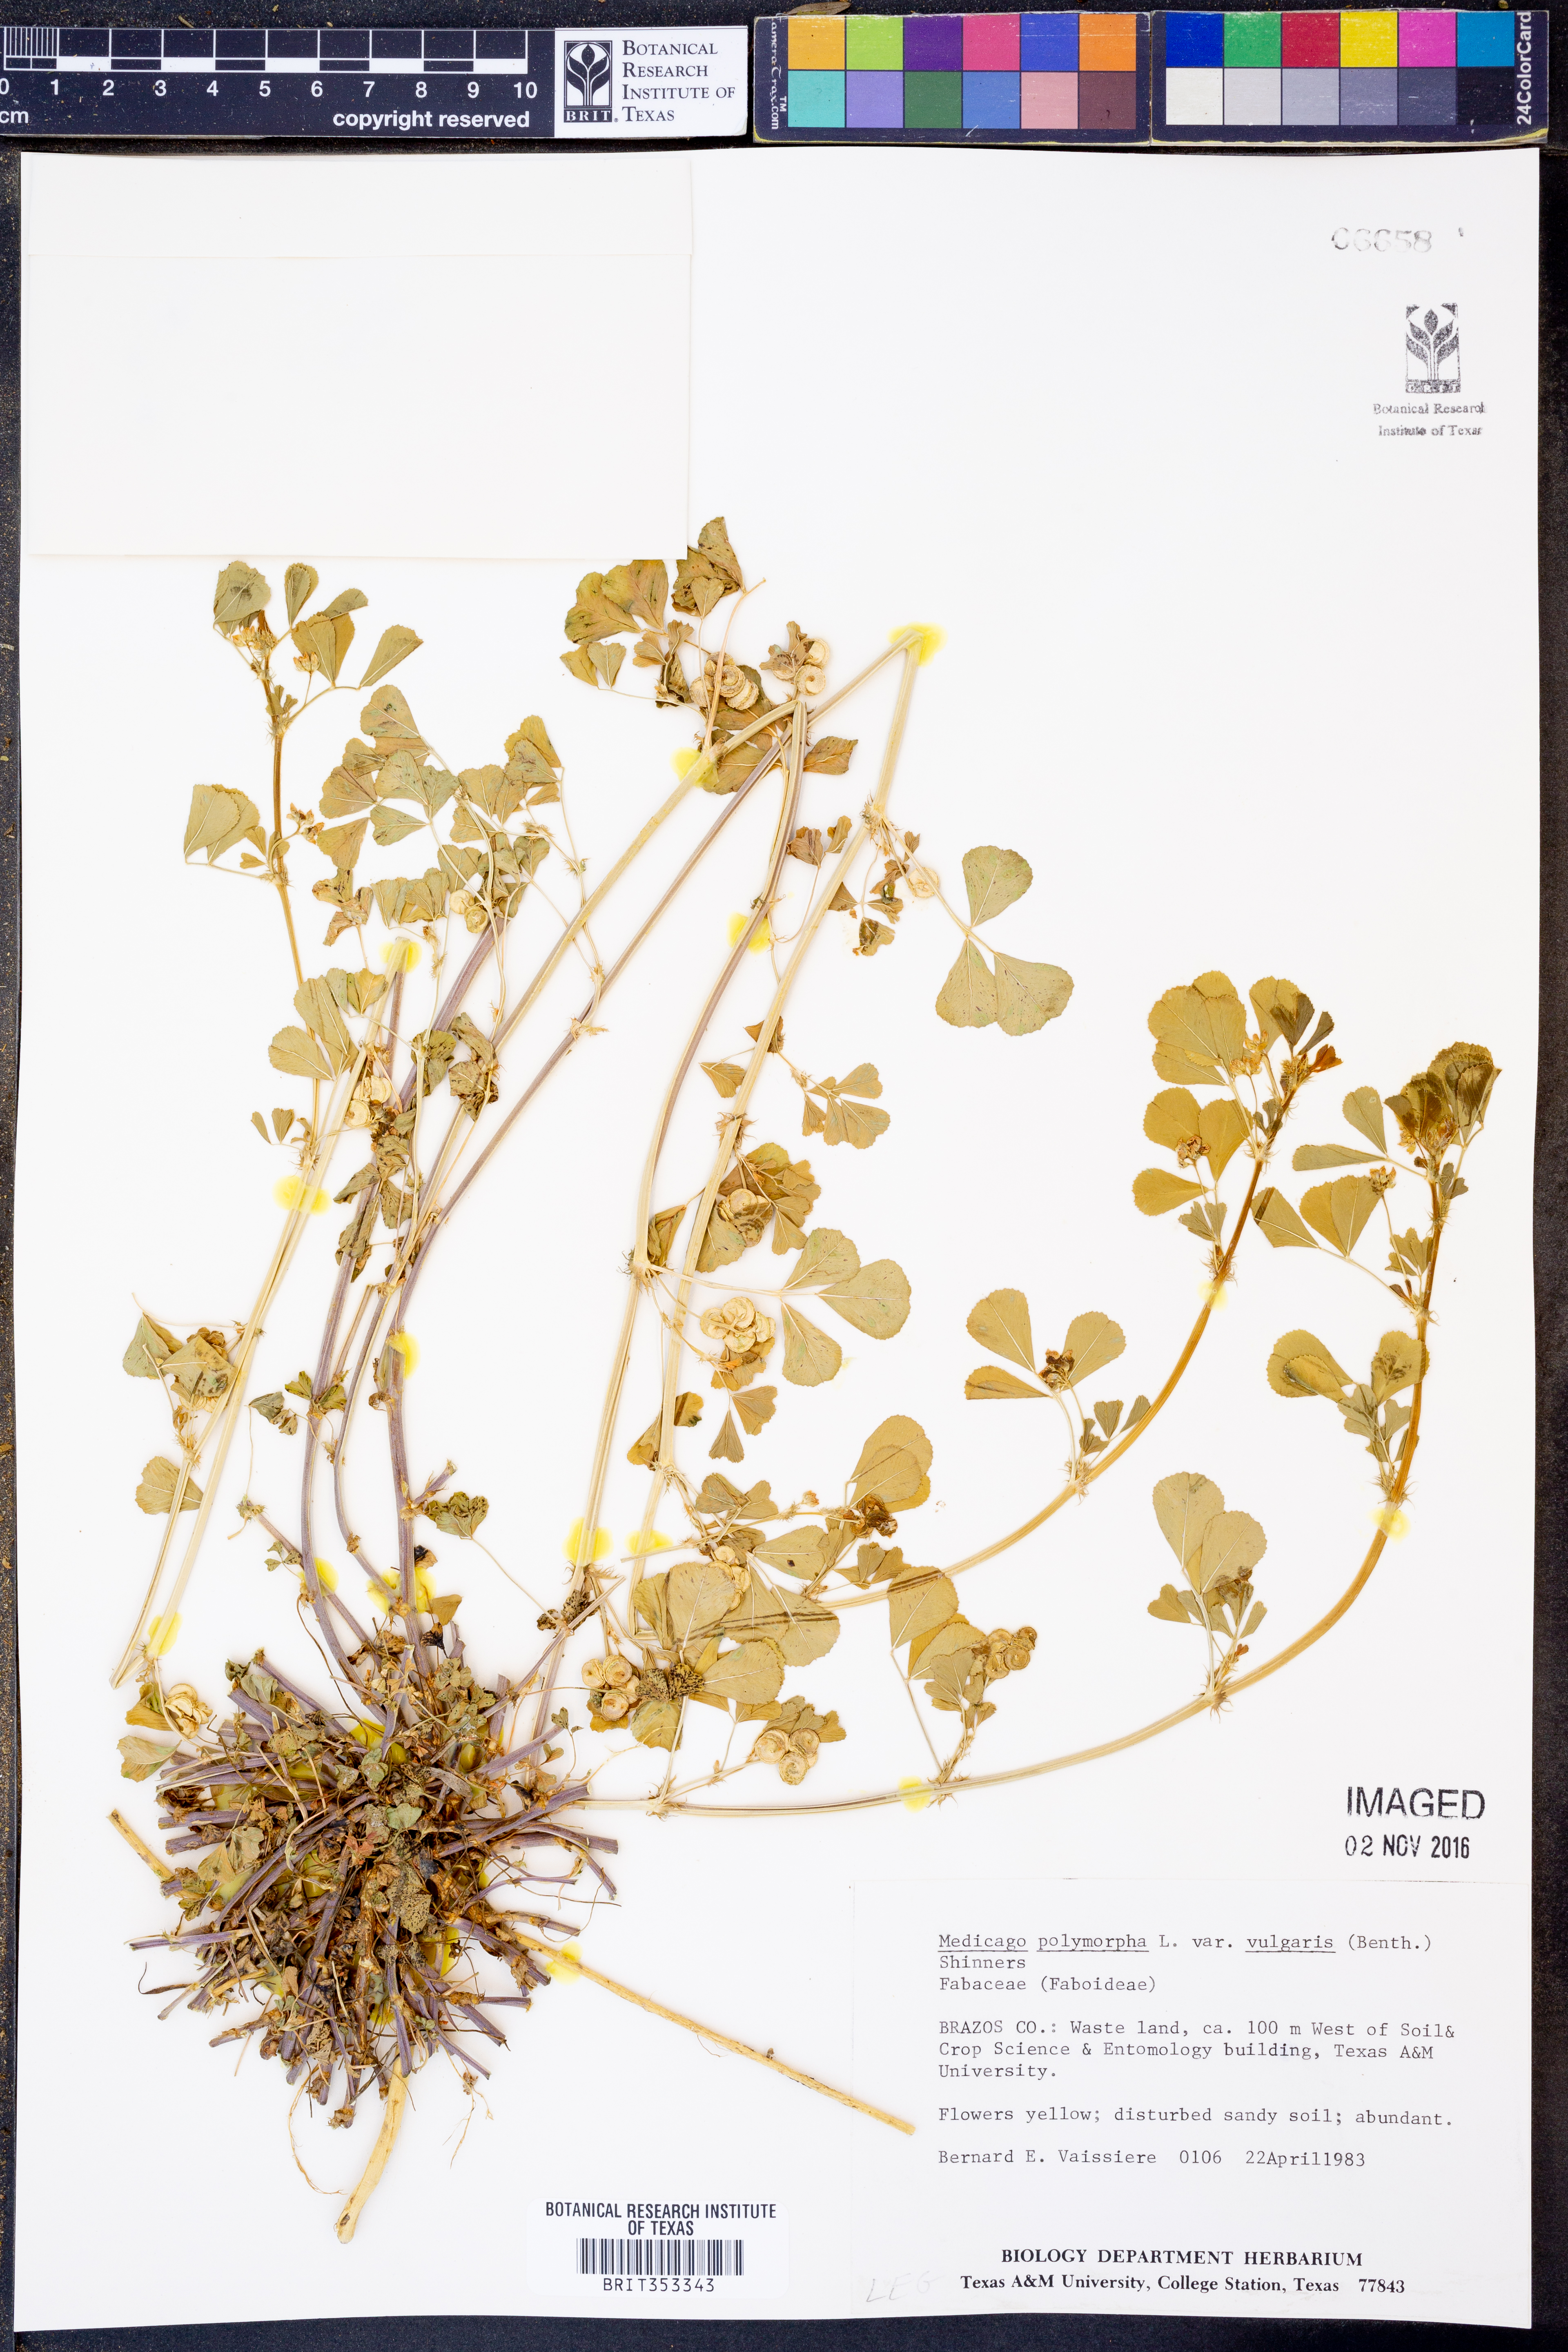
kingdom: Plantae
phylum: Tracheophyta
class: Magnoliopsida
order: Fabales
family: Fabaceae
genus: Medicago
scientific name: Medicago polymorpha
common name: Burclover
